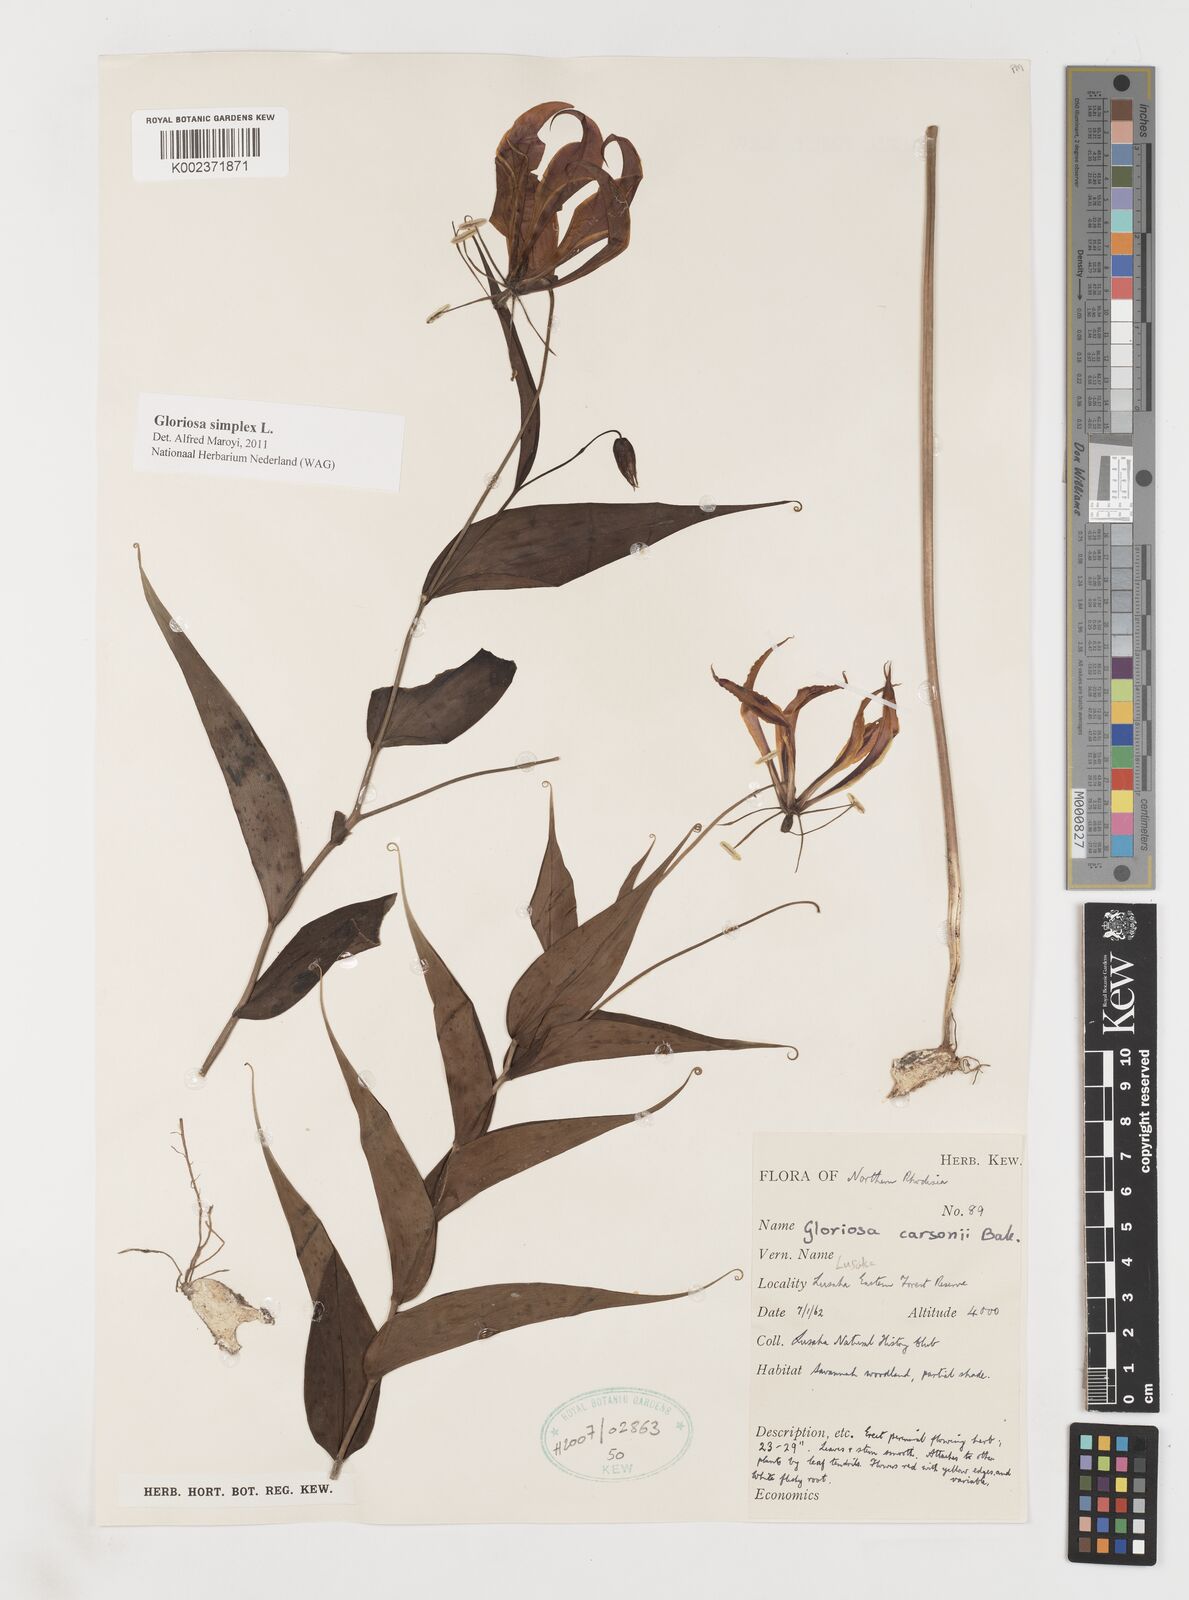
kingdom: Plantae
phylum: Tracheophyta
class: Liliopsida
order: Liliales
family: Colchicaceae
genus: Gloriosa
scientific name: Gloriosa simplex
